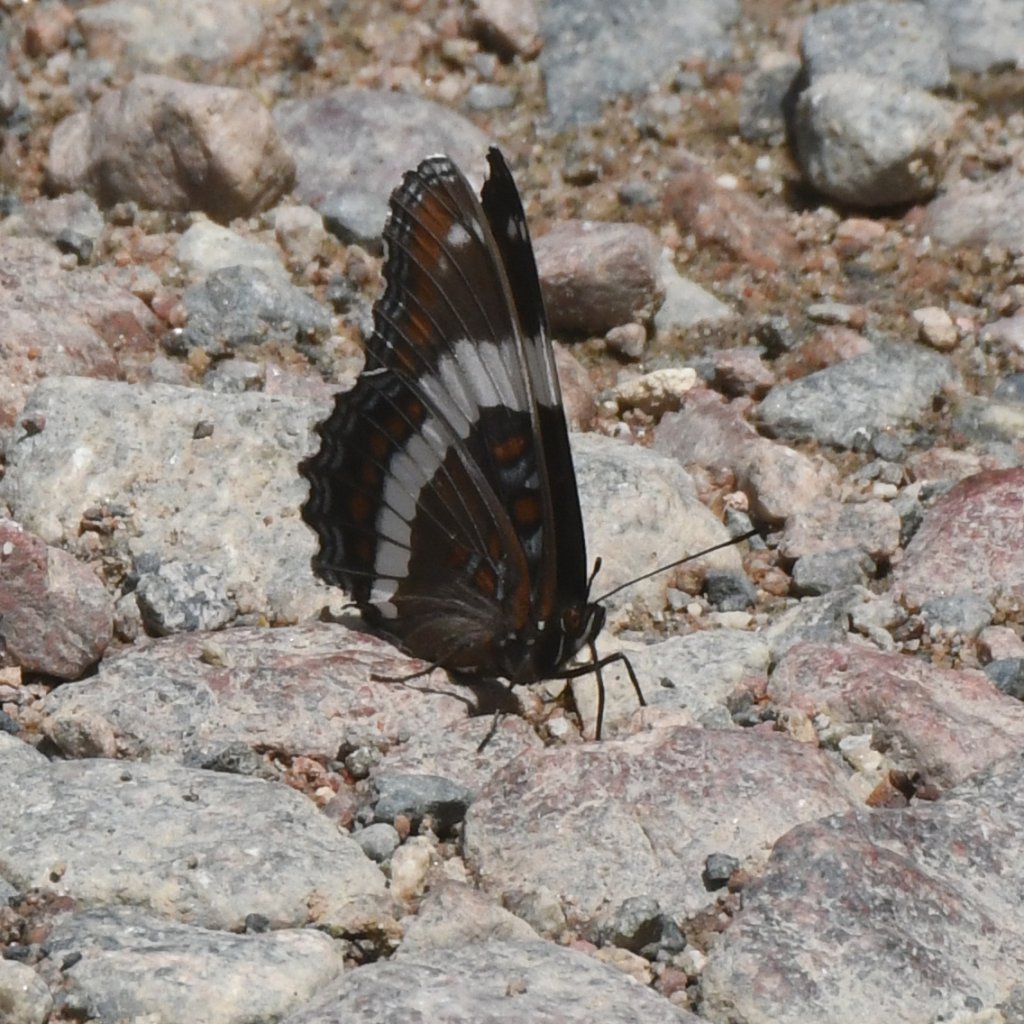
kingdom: Animalia
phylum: Arthropoda
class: Insecta
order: Lepidoptera
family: Nymphalidae
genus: Limenitis
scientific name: Limenitis arthemis
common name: Red-spotted Admiral
